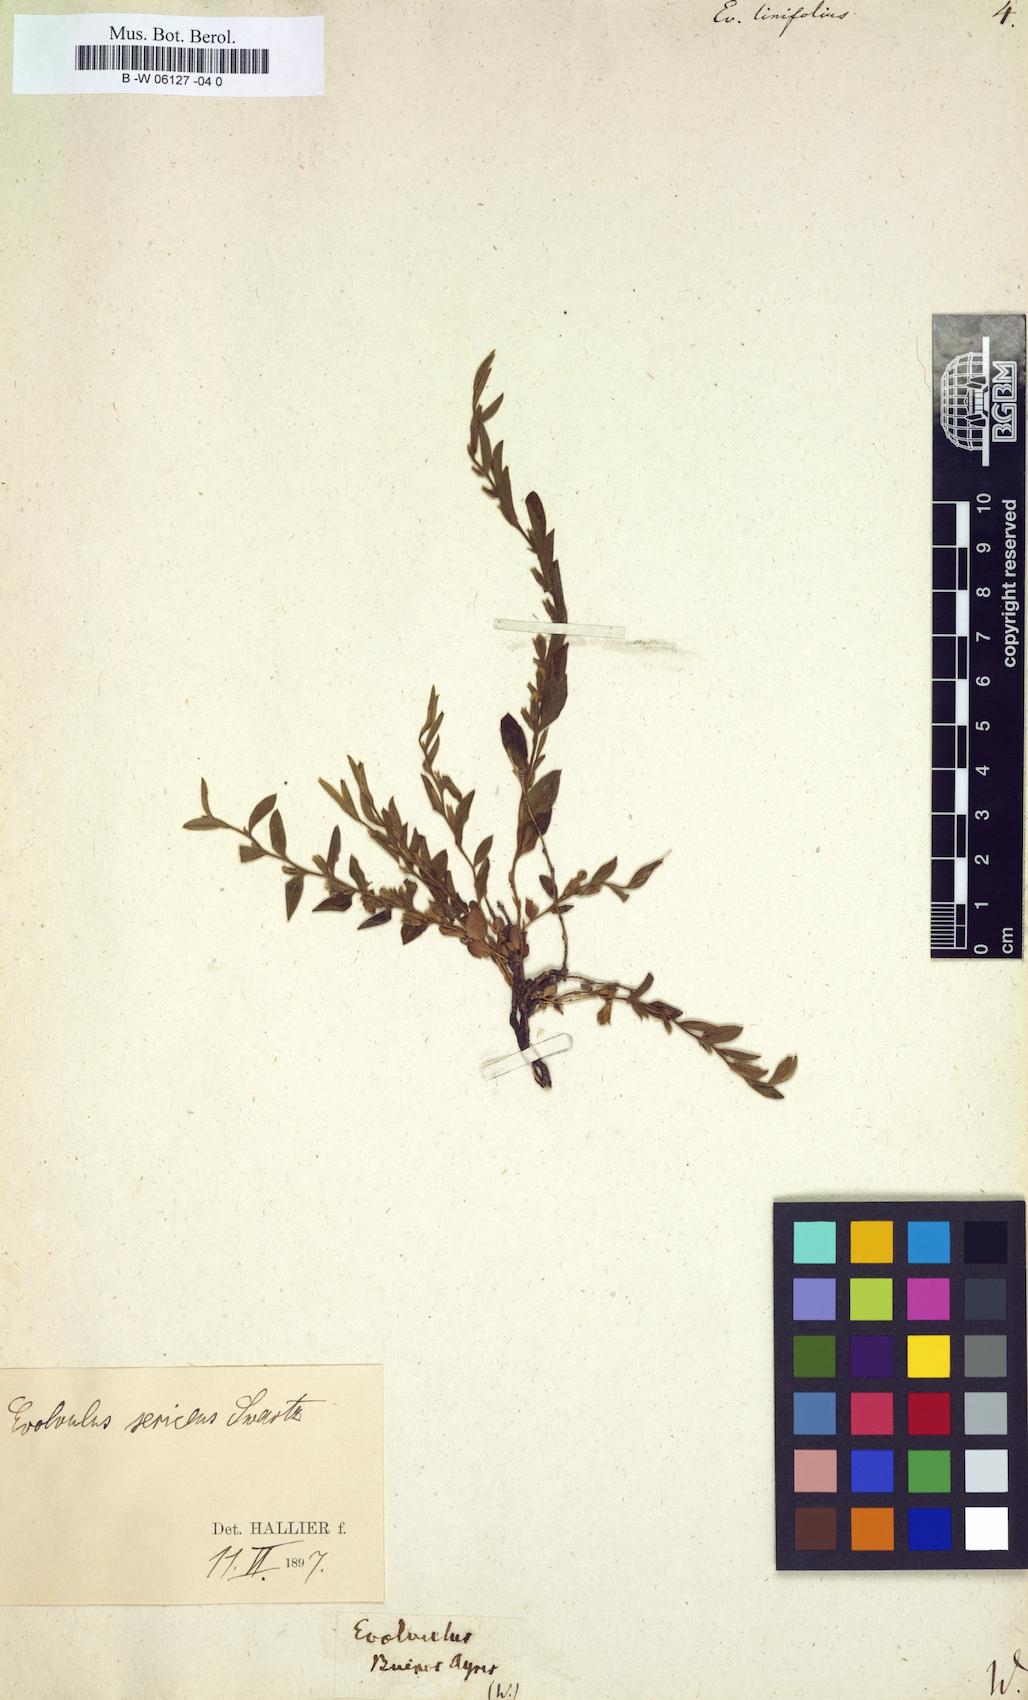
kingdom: Plantae
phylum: Tracheophyta
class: Magnoliopsida
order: Solanales
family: Convolvulaceae
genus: Evolvulus
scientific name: Evolvulus
